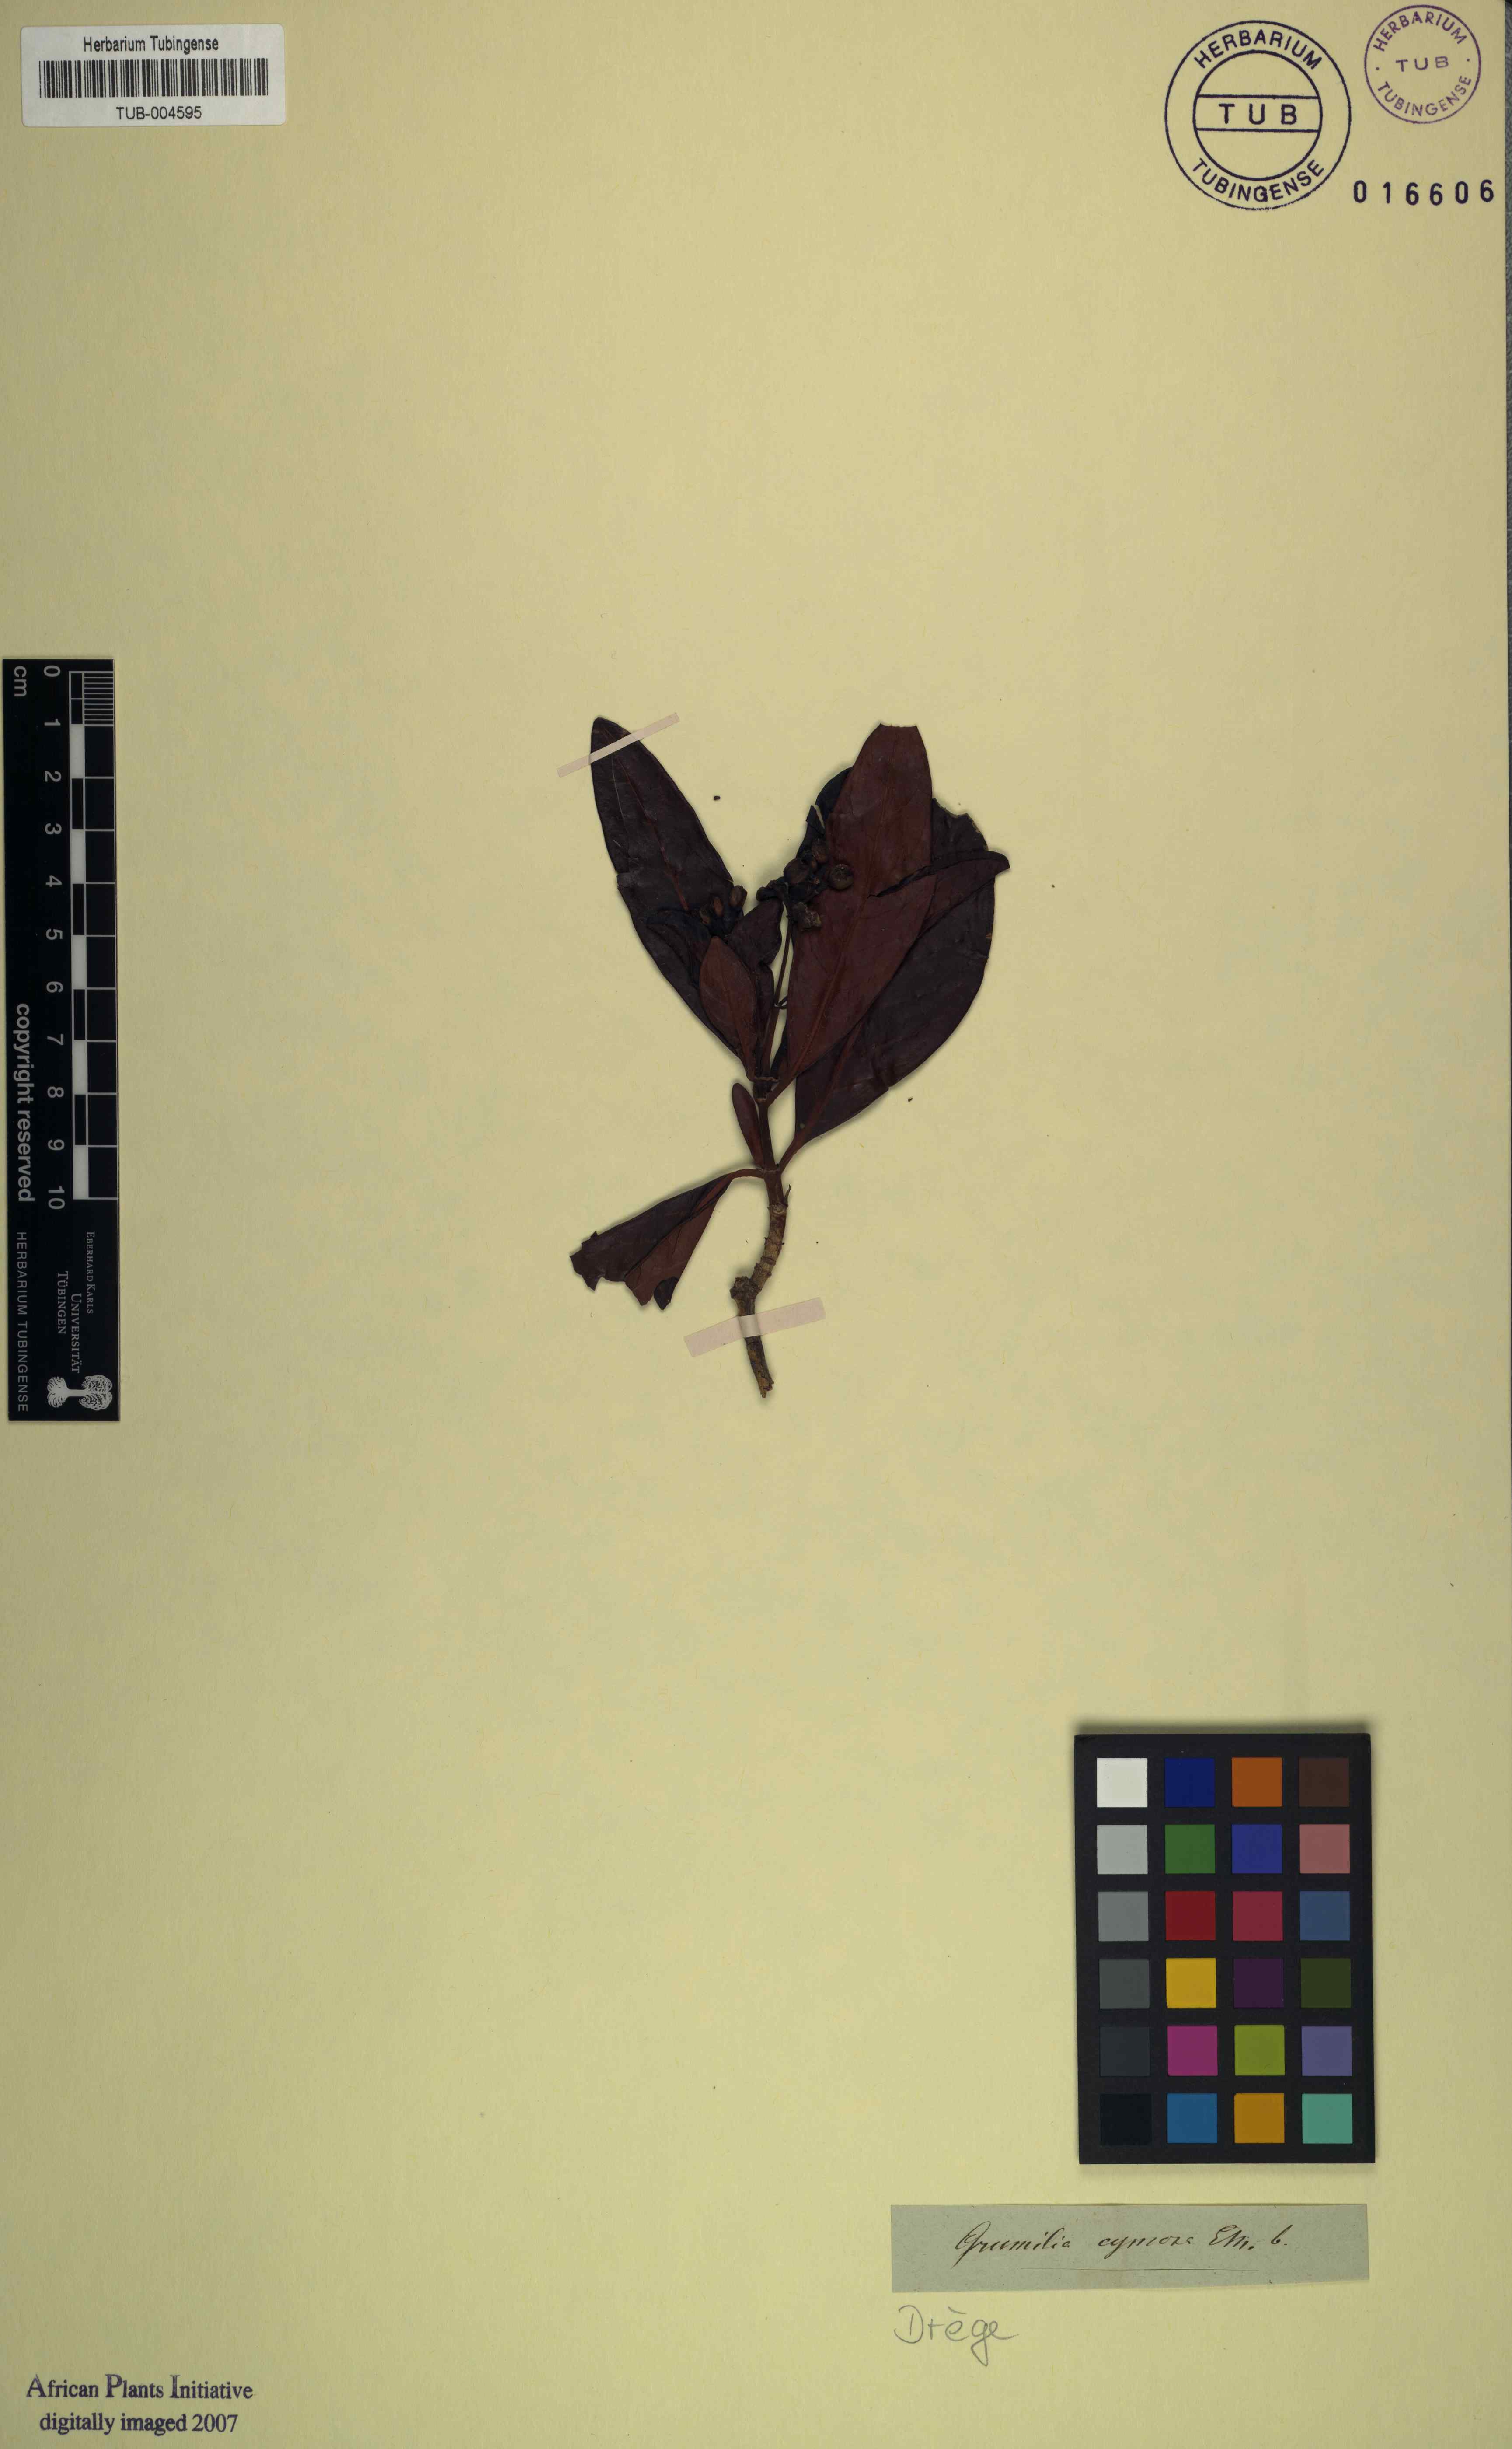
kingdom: Plantae
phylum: Tracheophyta
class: Magnoliopsida
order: Gentianales
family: Rubiaceae
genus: Psychotria
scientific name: Psychotria capensis
